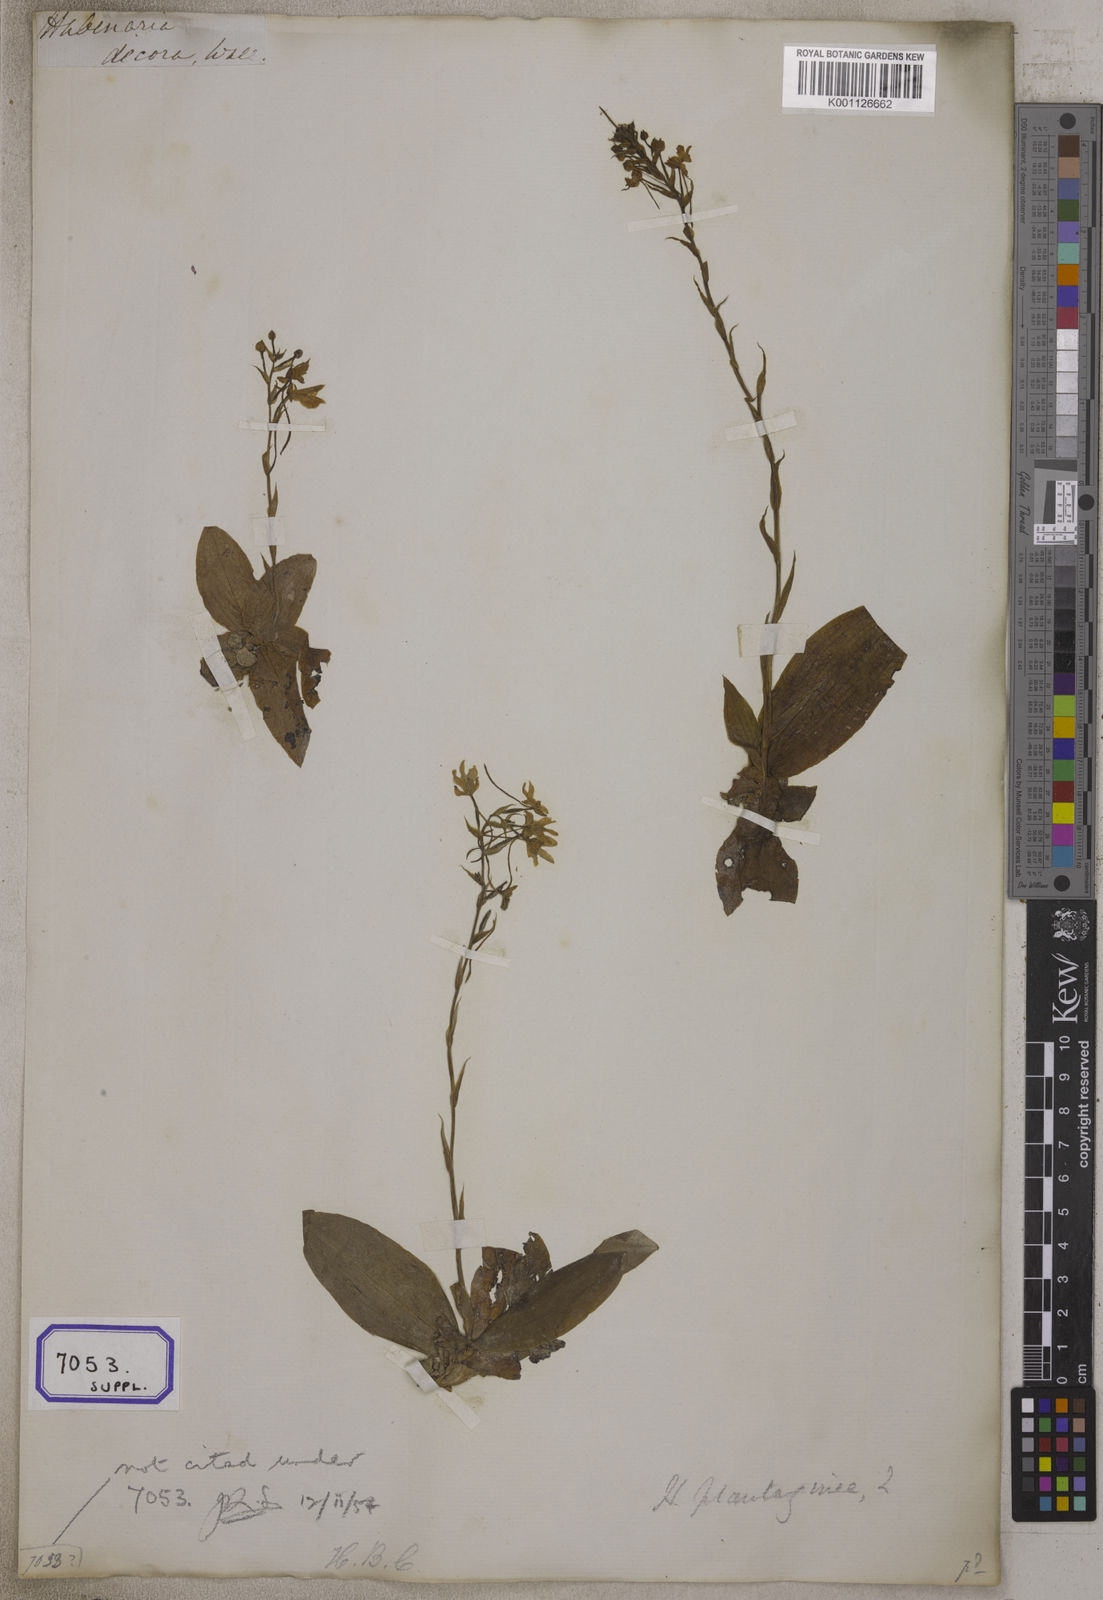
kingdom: Plantae
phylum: Tracheophyta
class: Liliopsida
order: Asparagales
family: Orchidaceae
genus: Gymnadenia
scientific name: Gymnadenia
